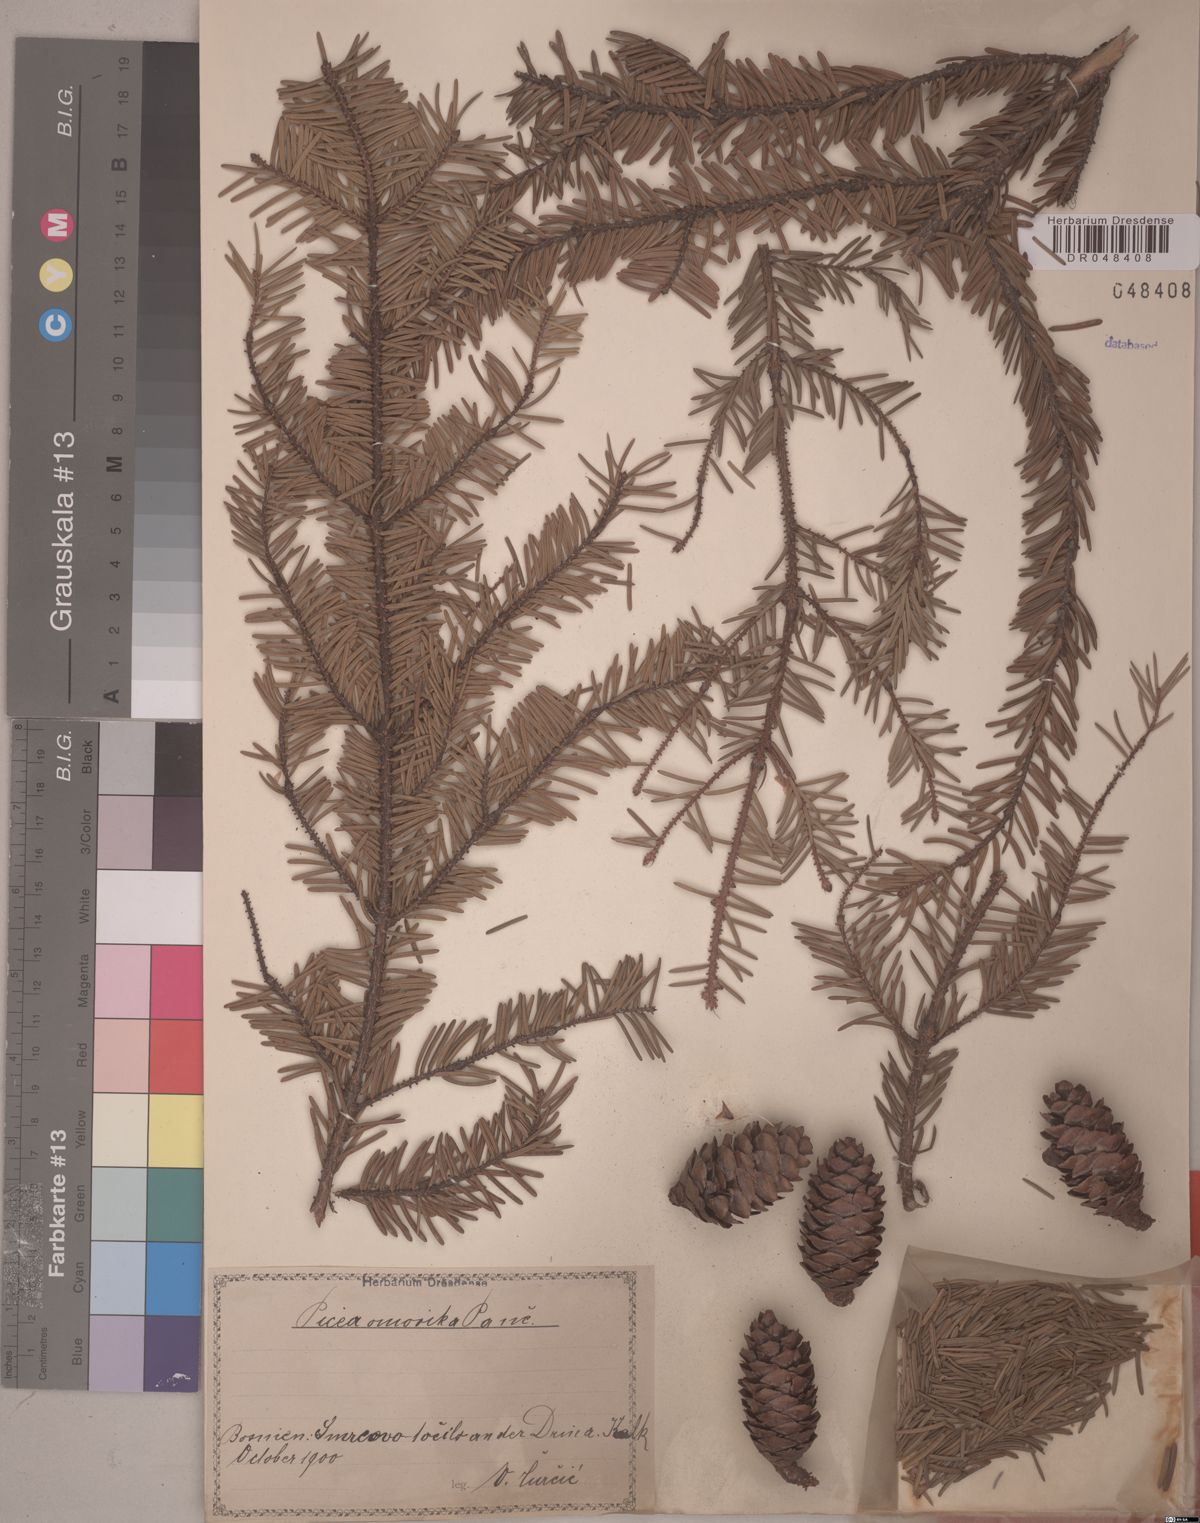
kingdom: Plantae
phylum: Tracheophyta
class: Pinopsida
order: Pinales
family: Pinaceae
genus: Picea
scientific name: Picea omorika
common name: Serbian spruce
